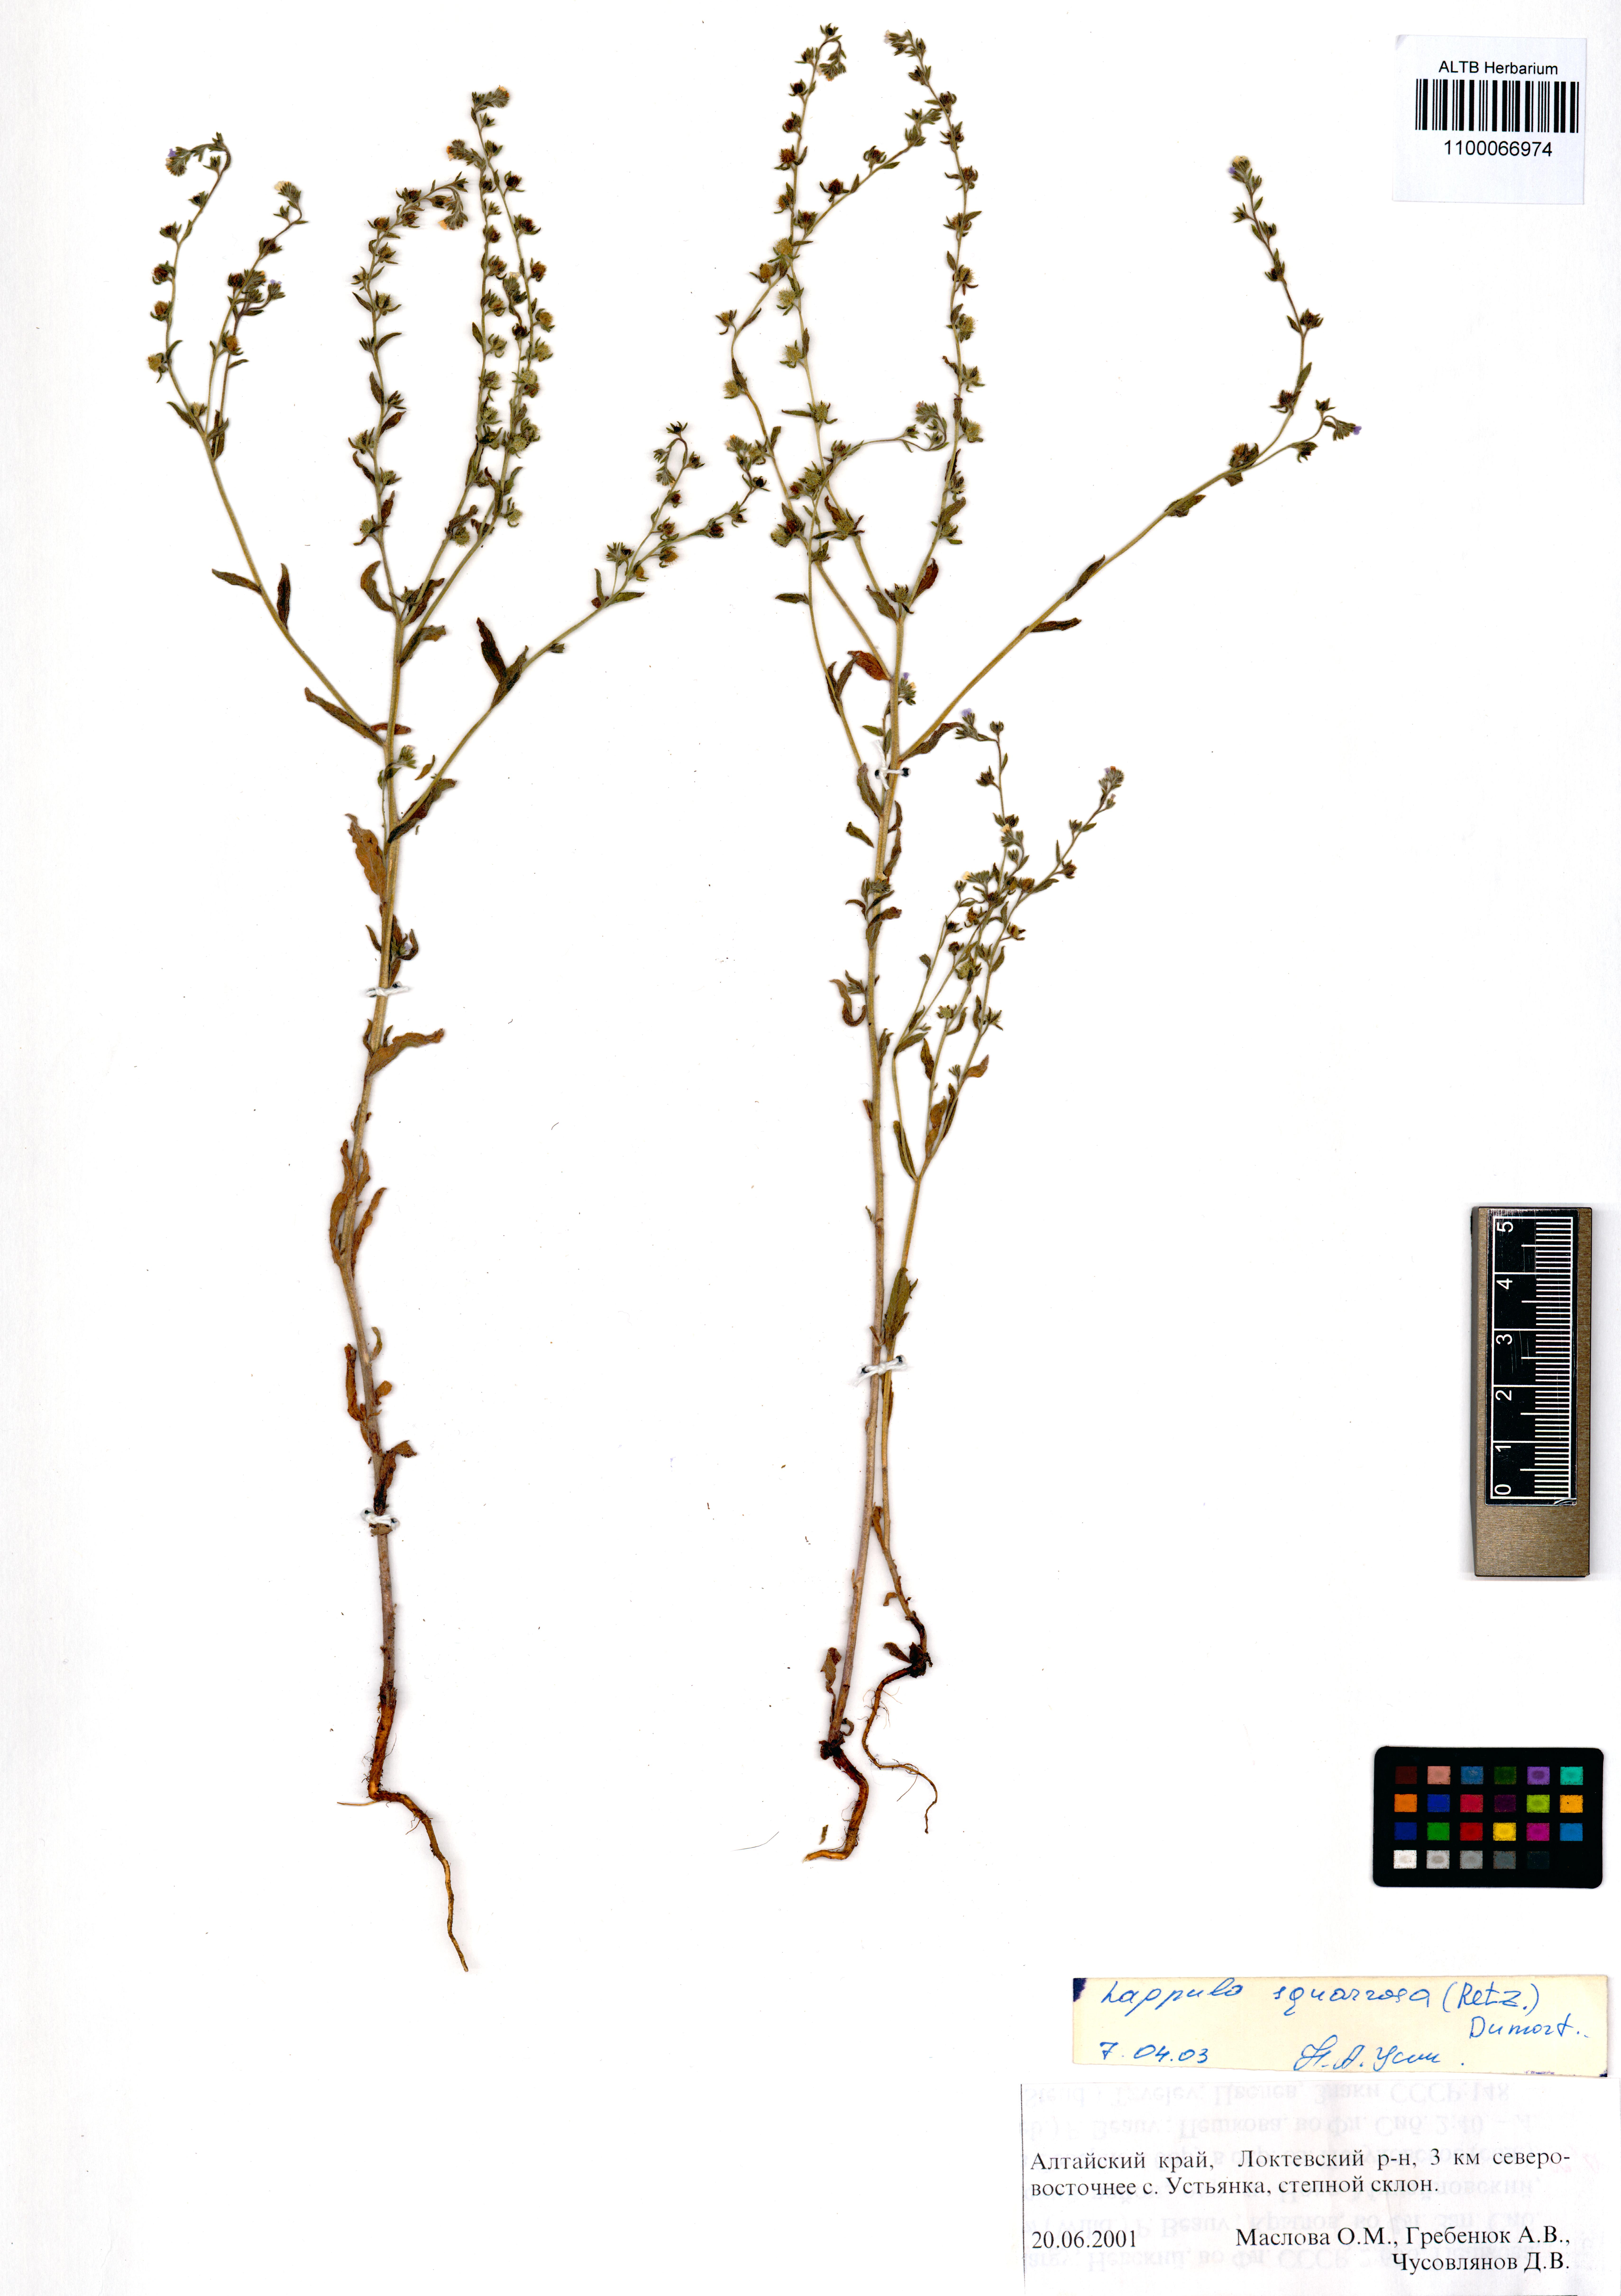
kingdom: Plantae
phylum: Tracheophyta
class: Magnoliopsida
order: Boraginales
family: Boraginaceae
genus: Lappula
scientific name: Lappula squarrosa
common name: European stickseed
